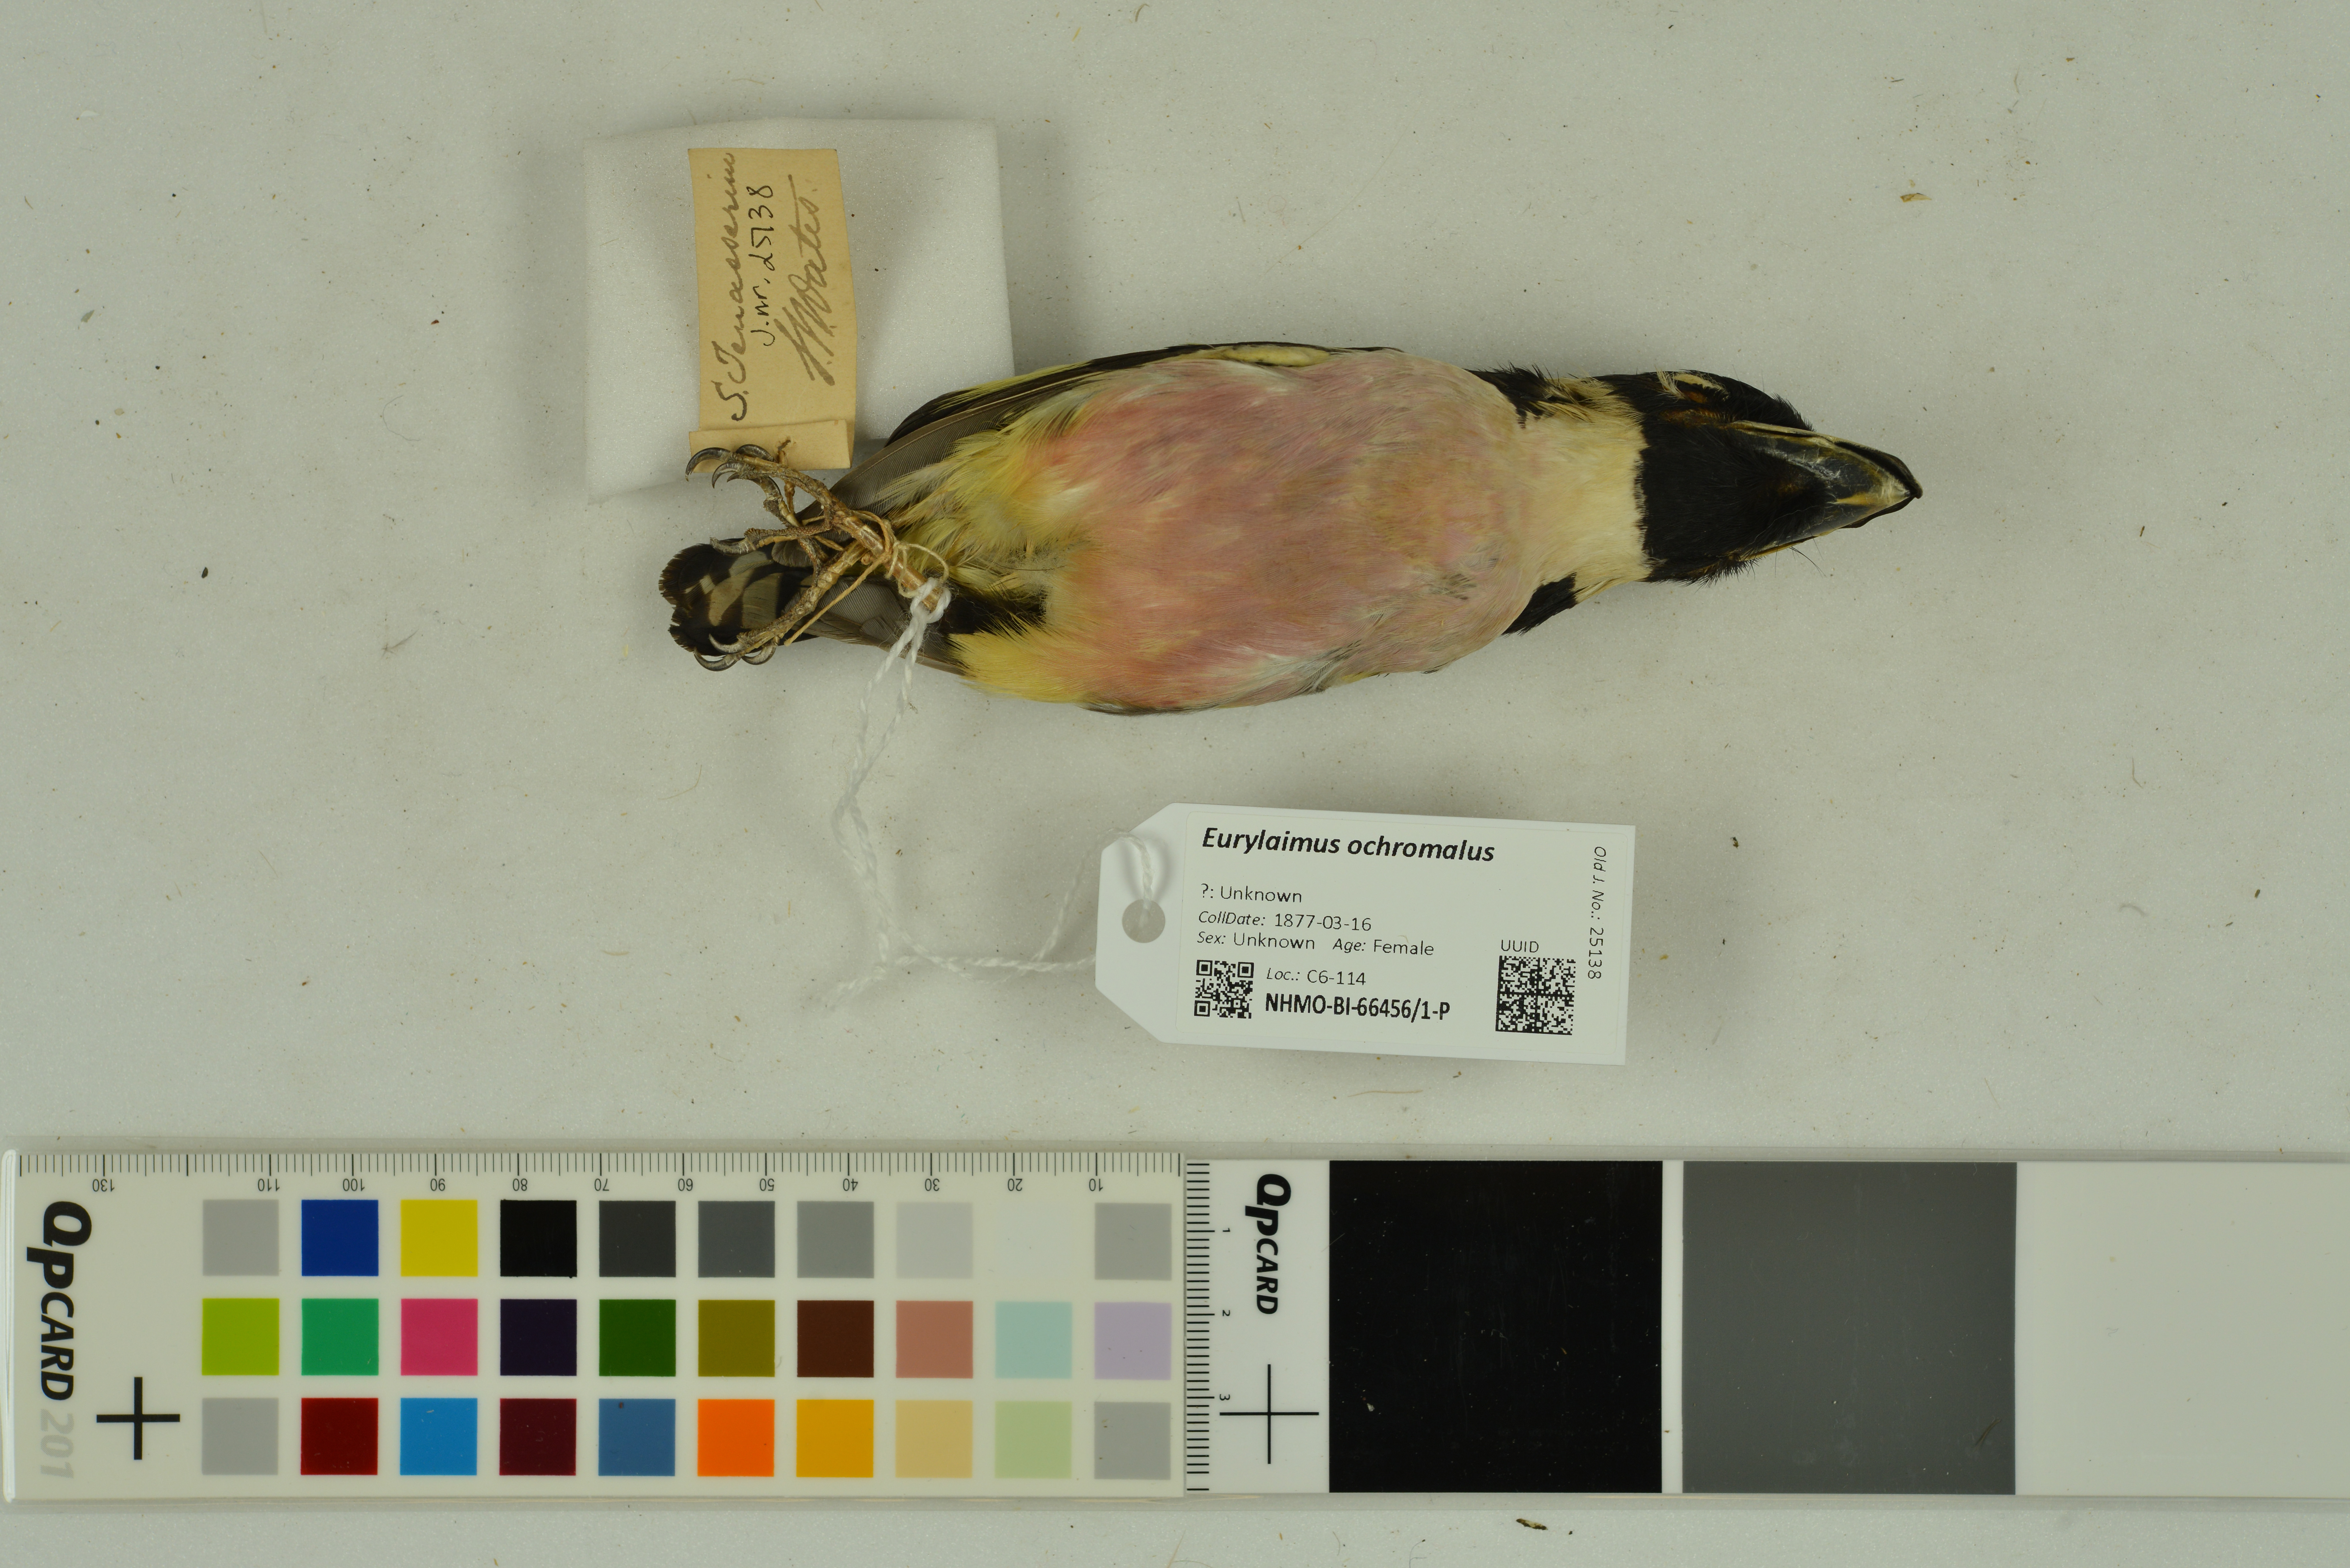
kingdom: Animalia
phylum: Chordata
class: Aves
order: Passeriformes
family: Eurylaimidae
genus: Eurylaimus
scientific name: Eurylaimus ochromalus
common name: Black-and-yellow broadbill
